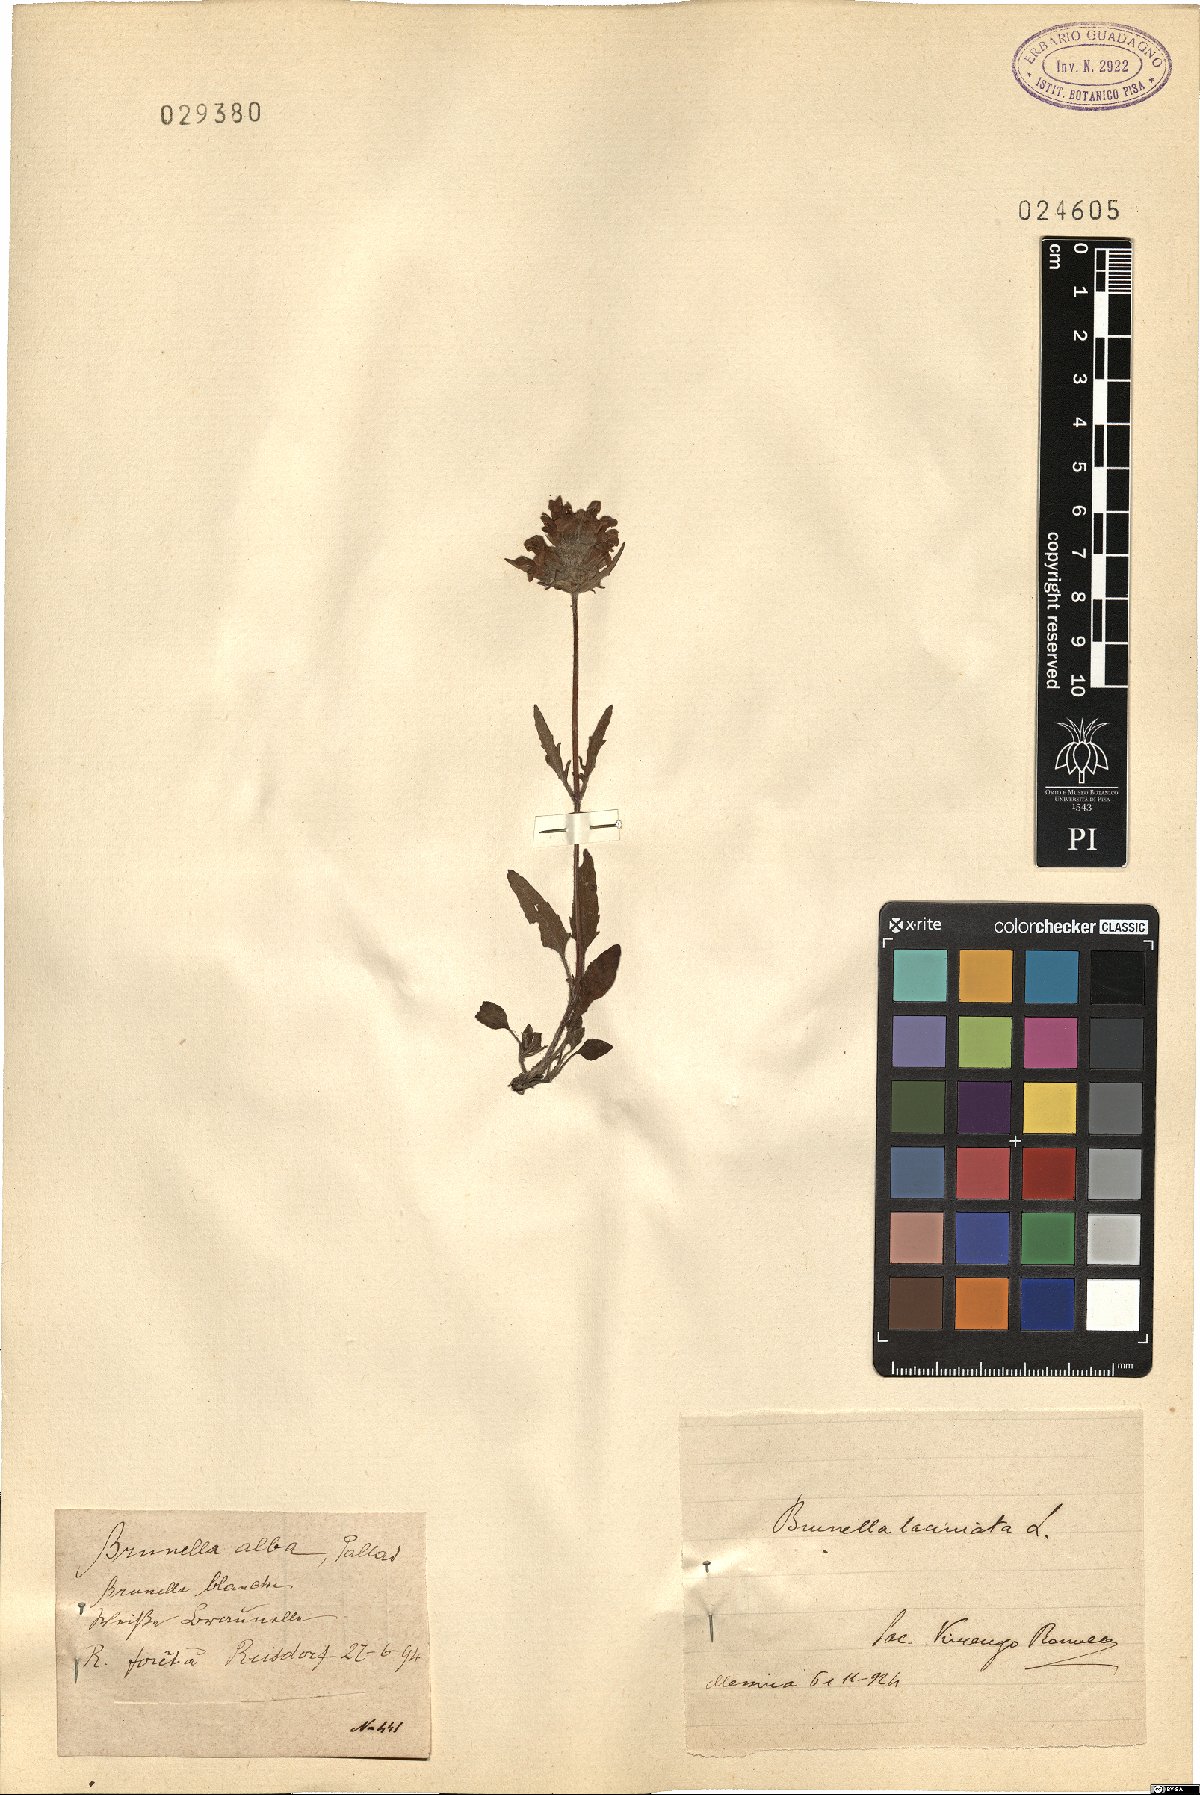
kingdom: Plantae
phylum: Tracheophyta
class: Magnoliopsida
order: Lamiales
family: Lamiaceae
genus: Prunella
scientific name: Prunella laciniata
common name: Cut-leaved selfheal
